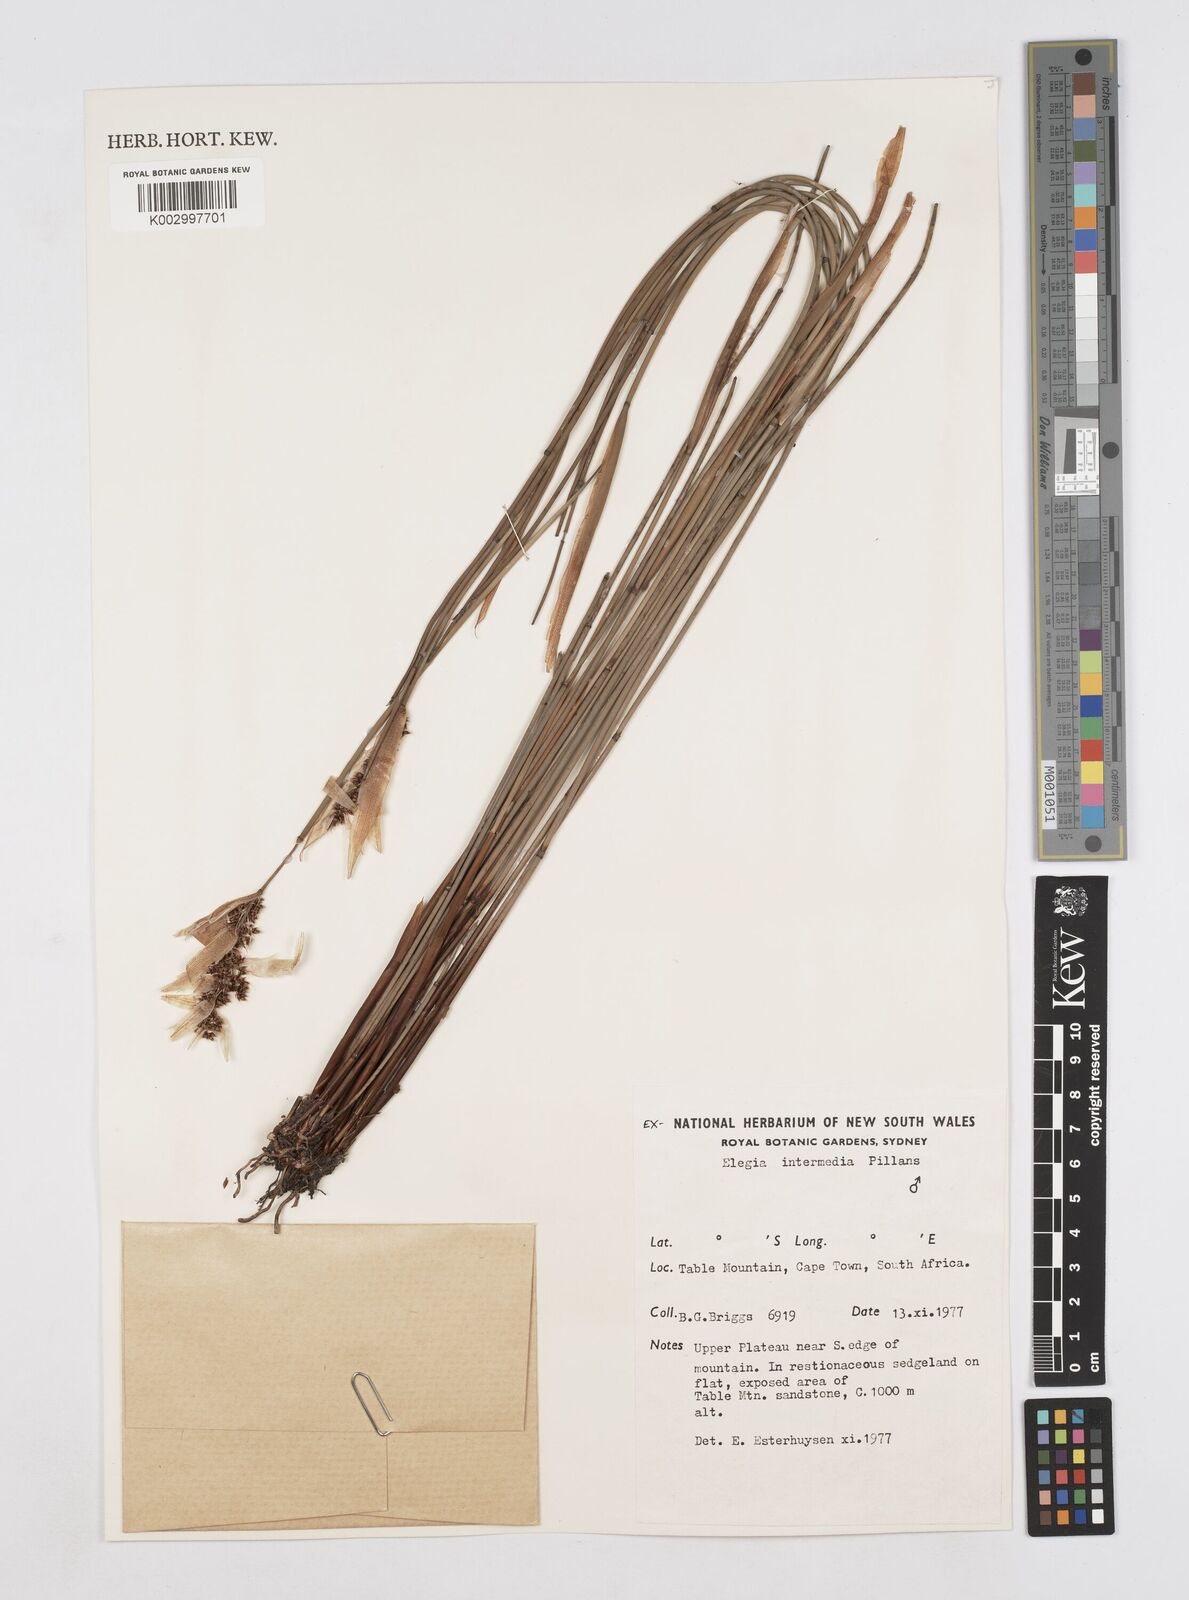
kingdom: Plantae
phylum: Tracheophyta
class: Liliopsida
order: Poales
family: Restionaceae
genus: Elegia
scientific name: Elegia intermedia
